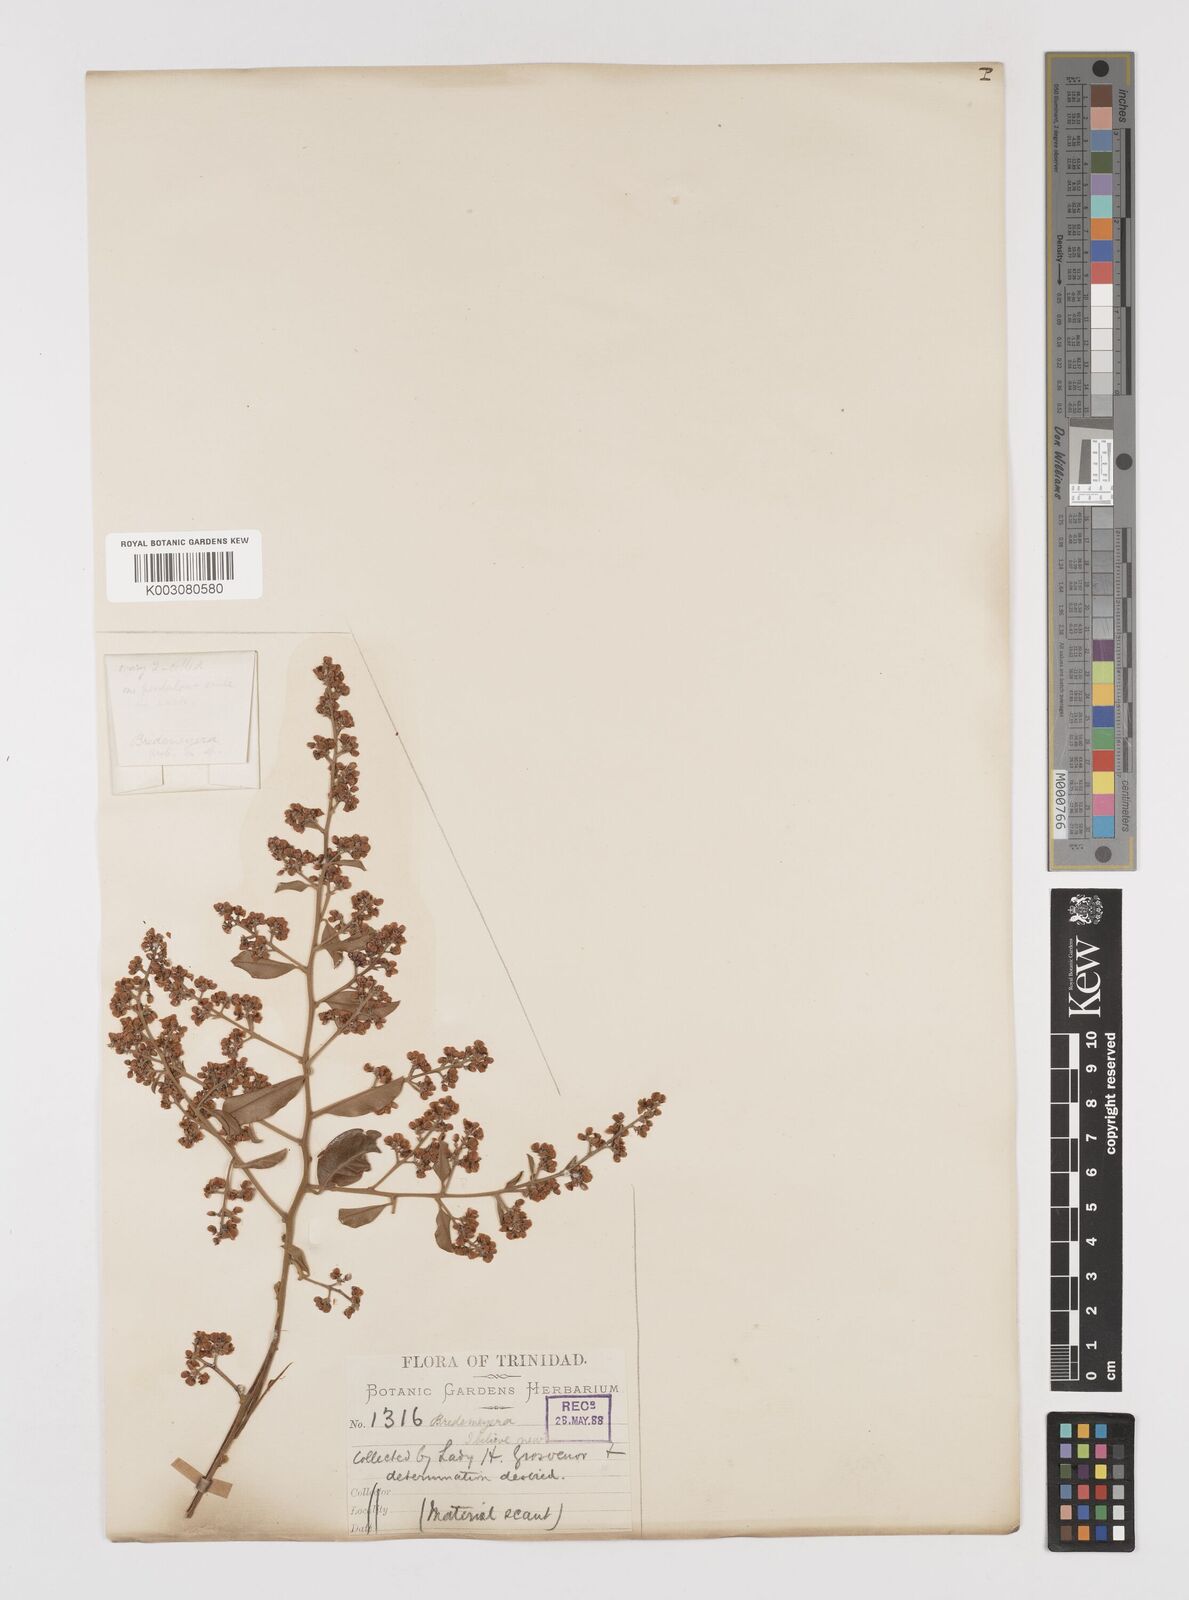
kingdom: Plantae
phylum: Tracheophyta
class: Magnoliopsida
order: Fabales
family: Polygalaceae
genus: Bredemeyera
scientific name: Bredemeyera lucida
